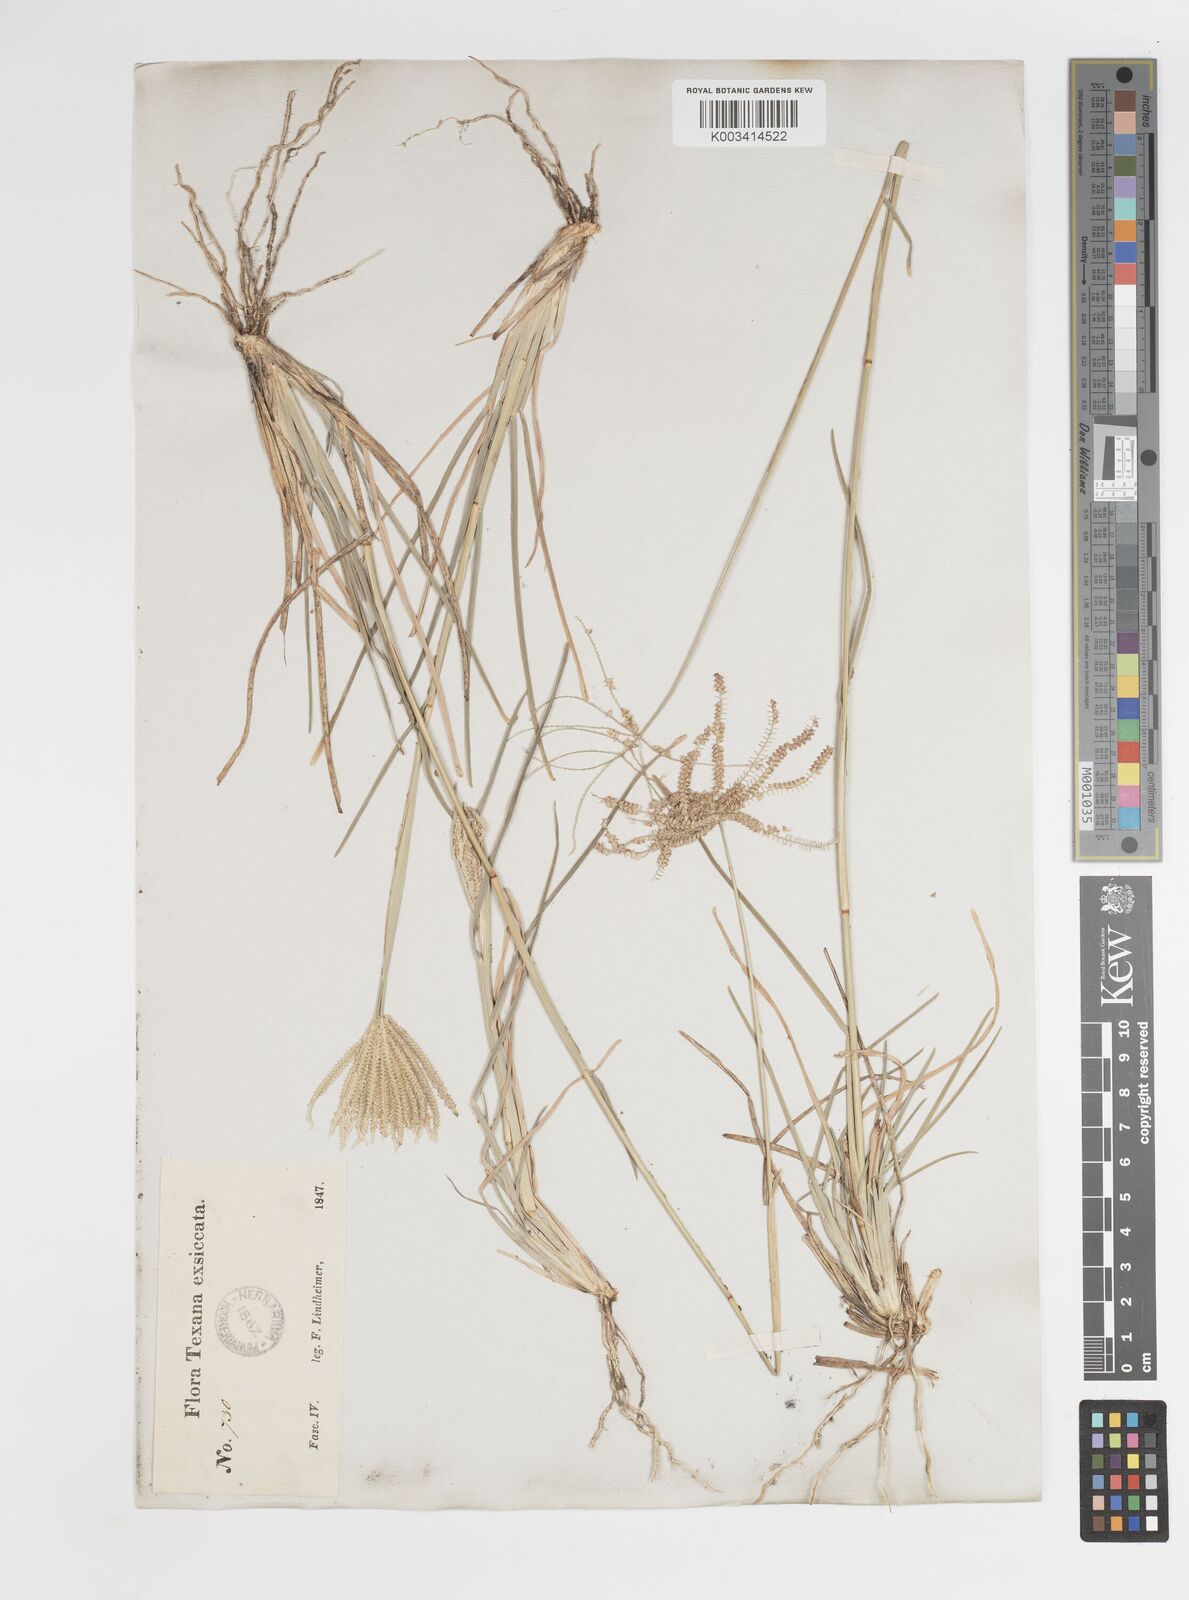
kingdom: Plantae
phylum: Tracheophyta
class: Liliopsida
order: Poales
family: Poaceae
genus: Chloris
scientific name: Chloris cucullata
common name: Hooded windmill grass
